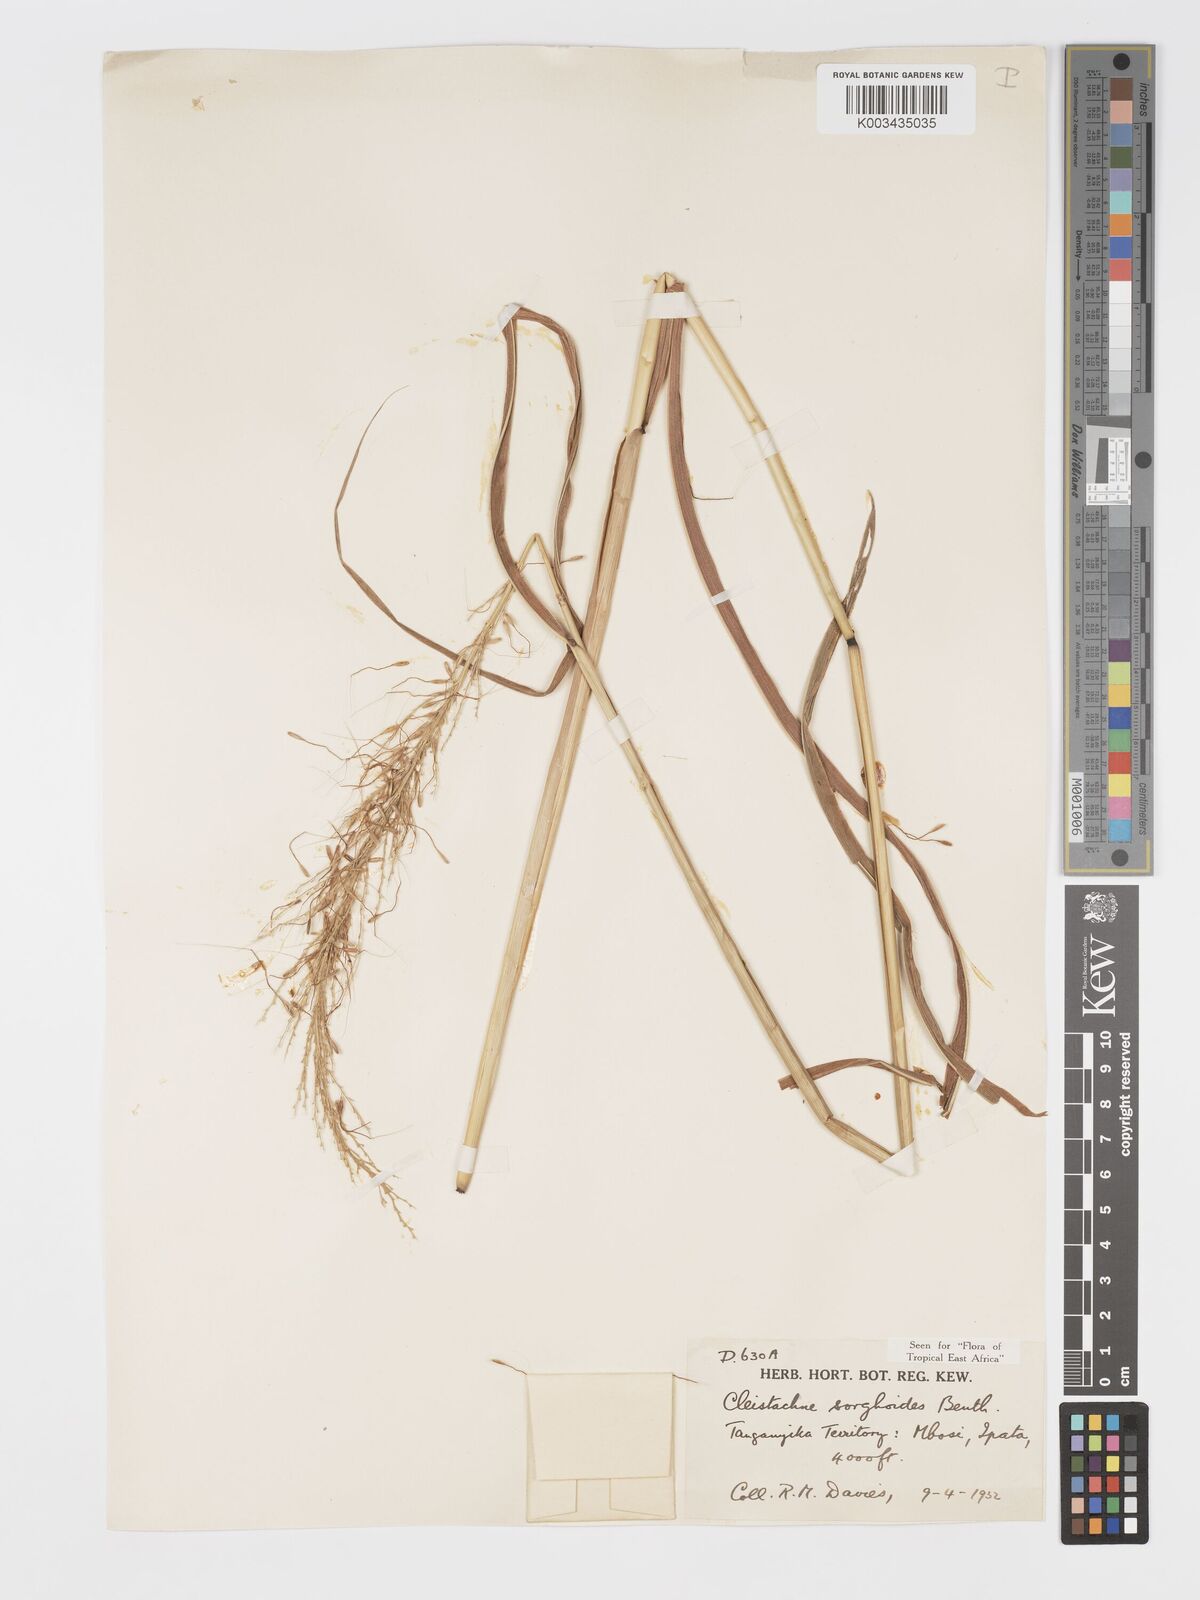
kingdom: Plantae
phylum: Tracheophyta
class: Liliopsida
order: Poales
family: Poaceae
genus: Cleistachne
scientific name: Cleistachne sorghoides
